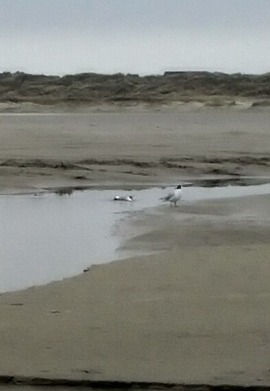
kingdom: Animalia
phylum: Chordata
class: Aves
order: Charadriiformes
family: Laridae
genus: Chroicocephalus
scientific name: Chroicocephalus ridibundus
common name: Hættemåge
